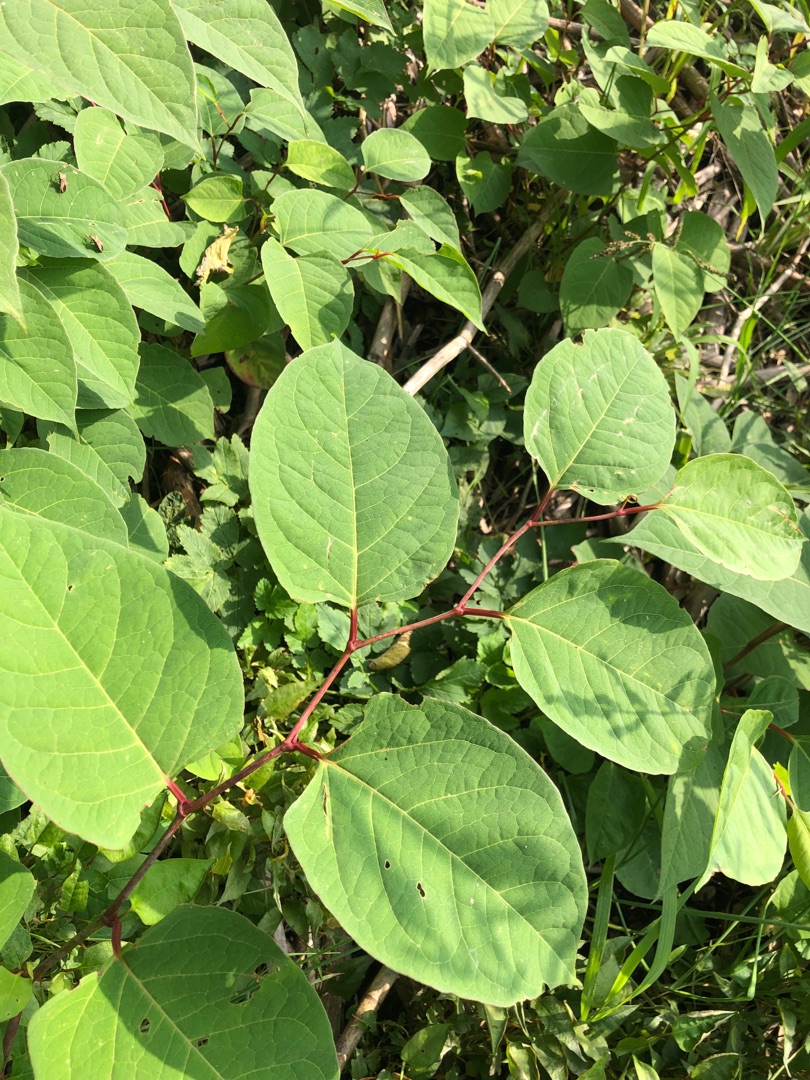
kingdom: Plantae
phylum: Tracheophyta
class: Magnoliopsida
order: Caryophyllales
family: Polygonaceae
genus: Reynoutria
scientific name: Reynoutria japonica
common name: Japan-pileurt
